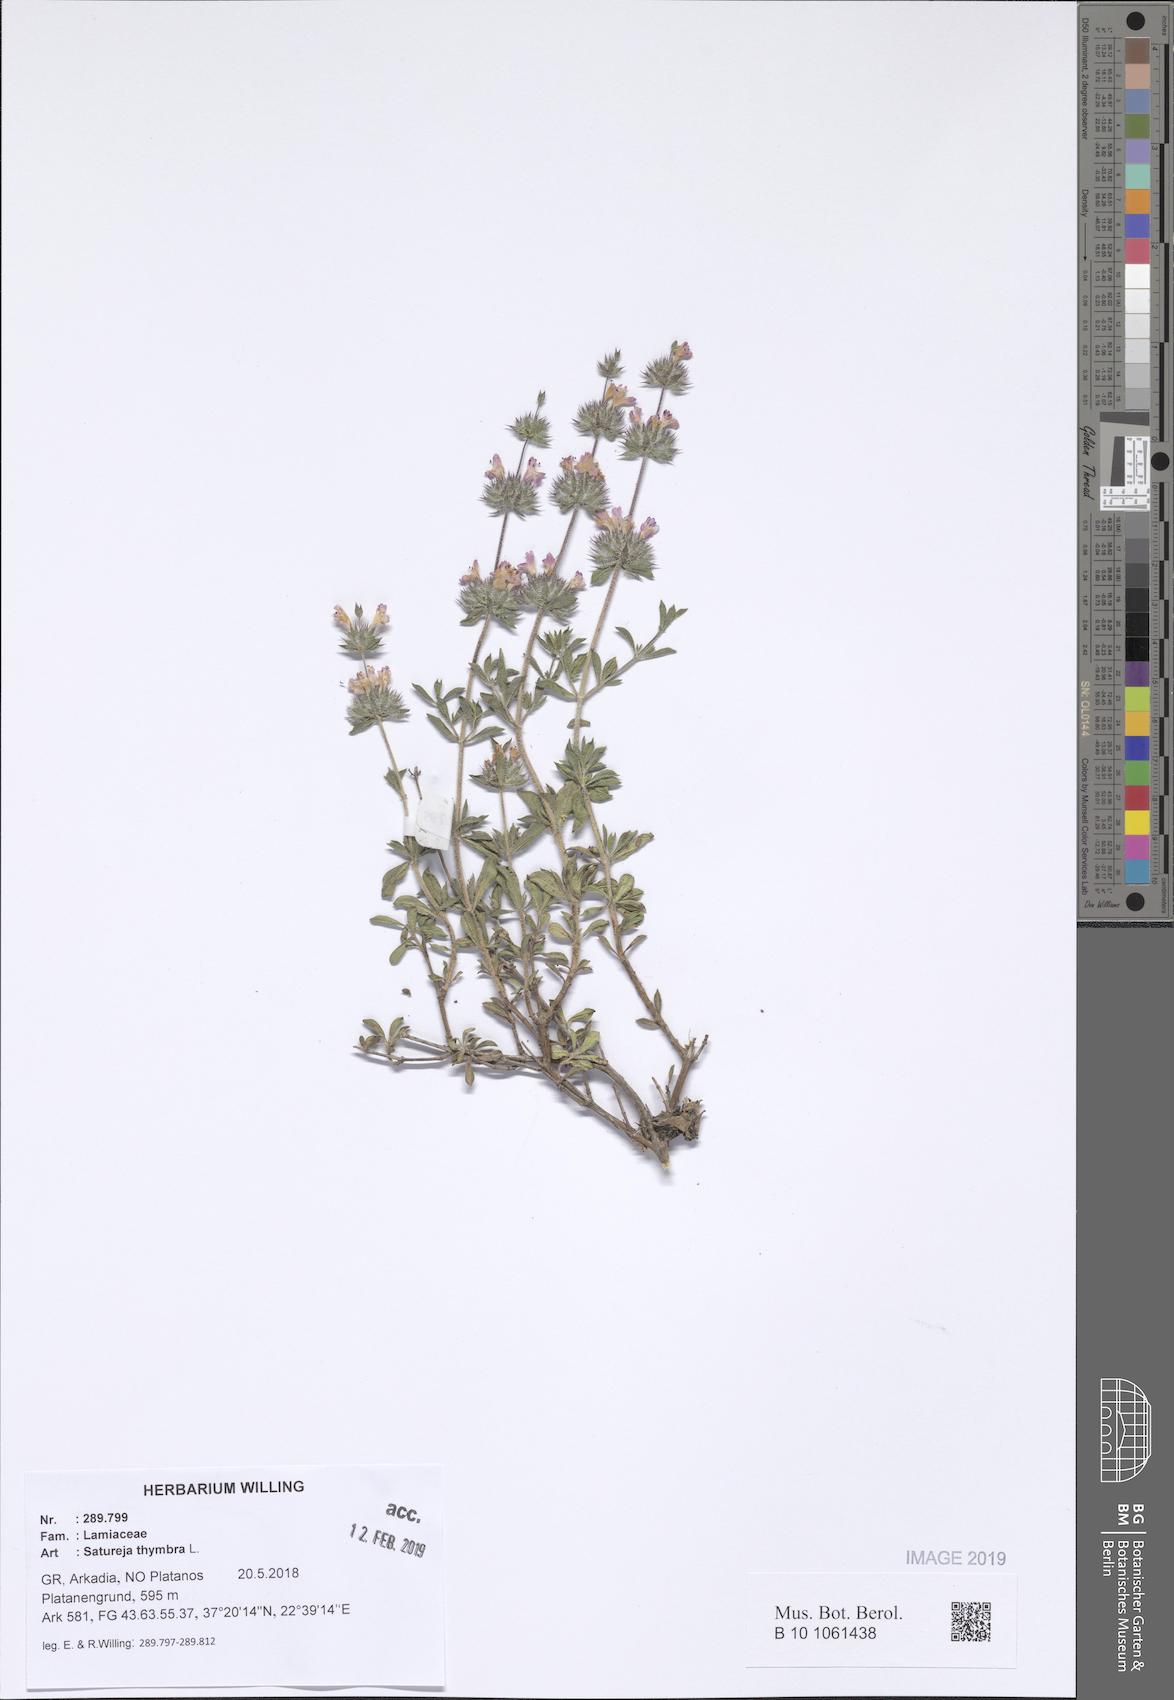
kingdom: Plantae
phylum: Tracheophyta
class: Magnoliopsida
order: Lamiales
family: Lamiaceae
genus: Satureja
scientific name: Satureja thymbra
